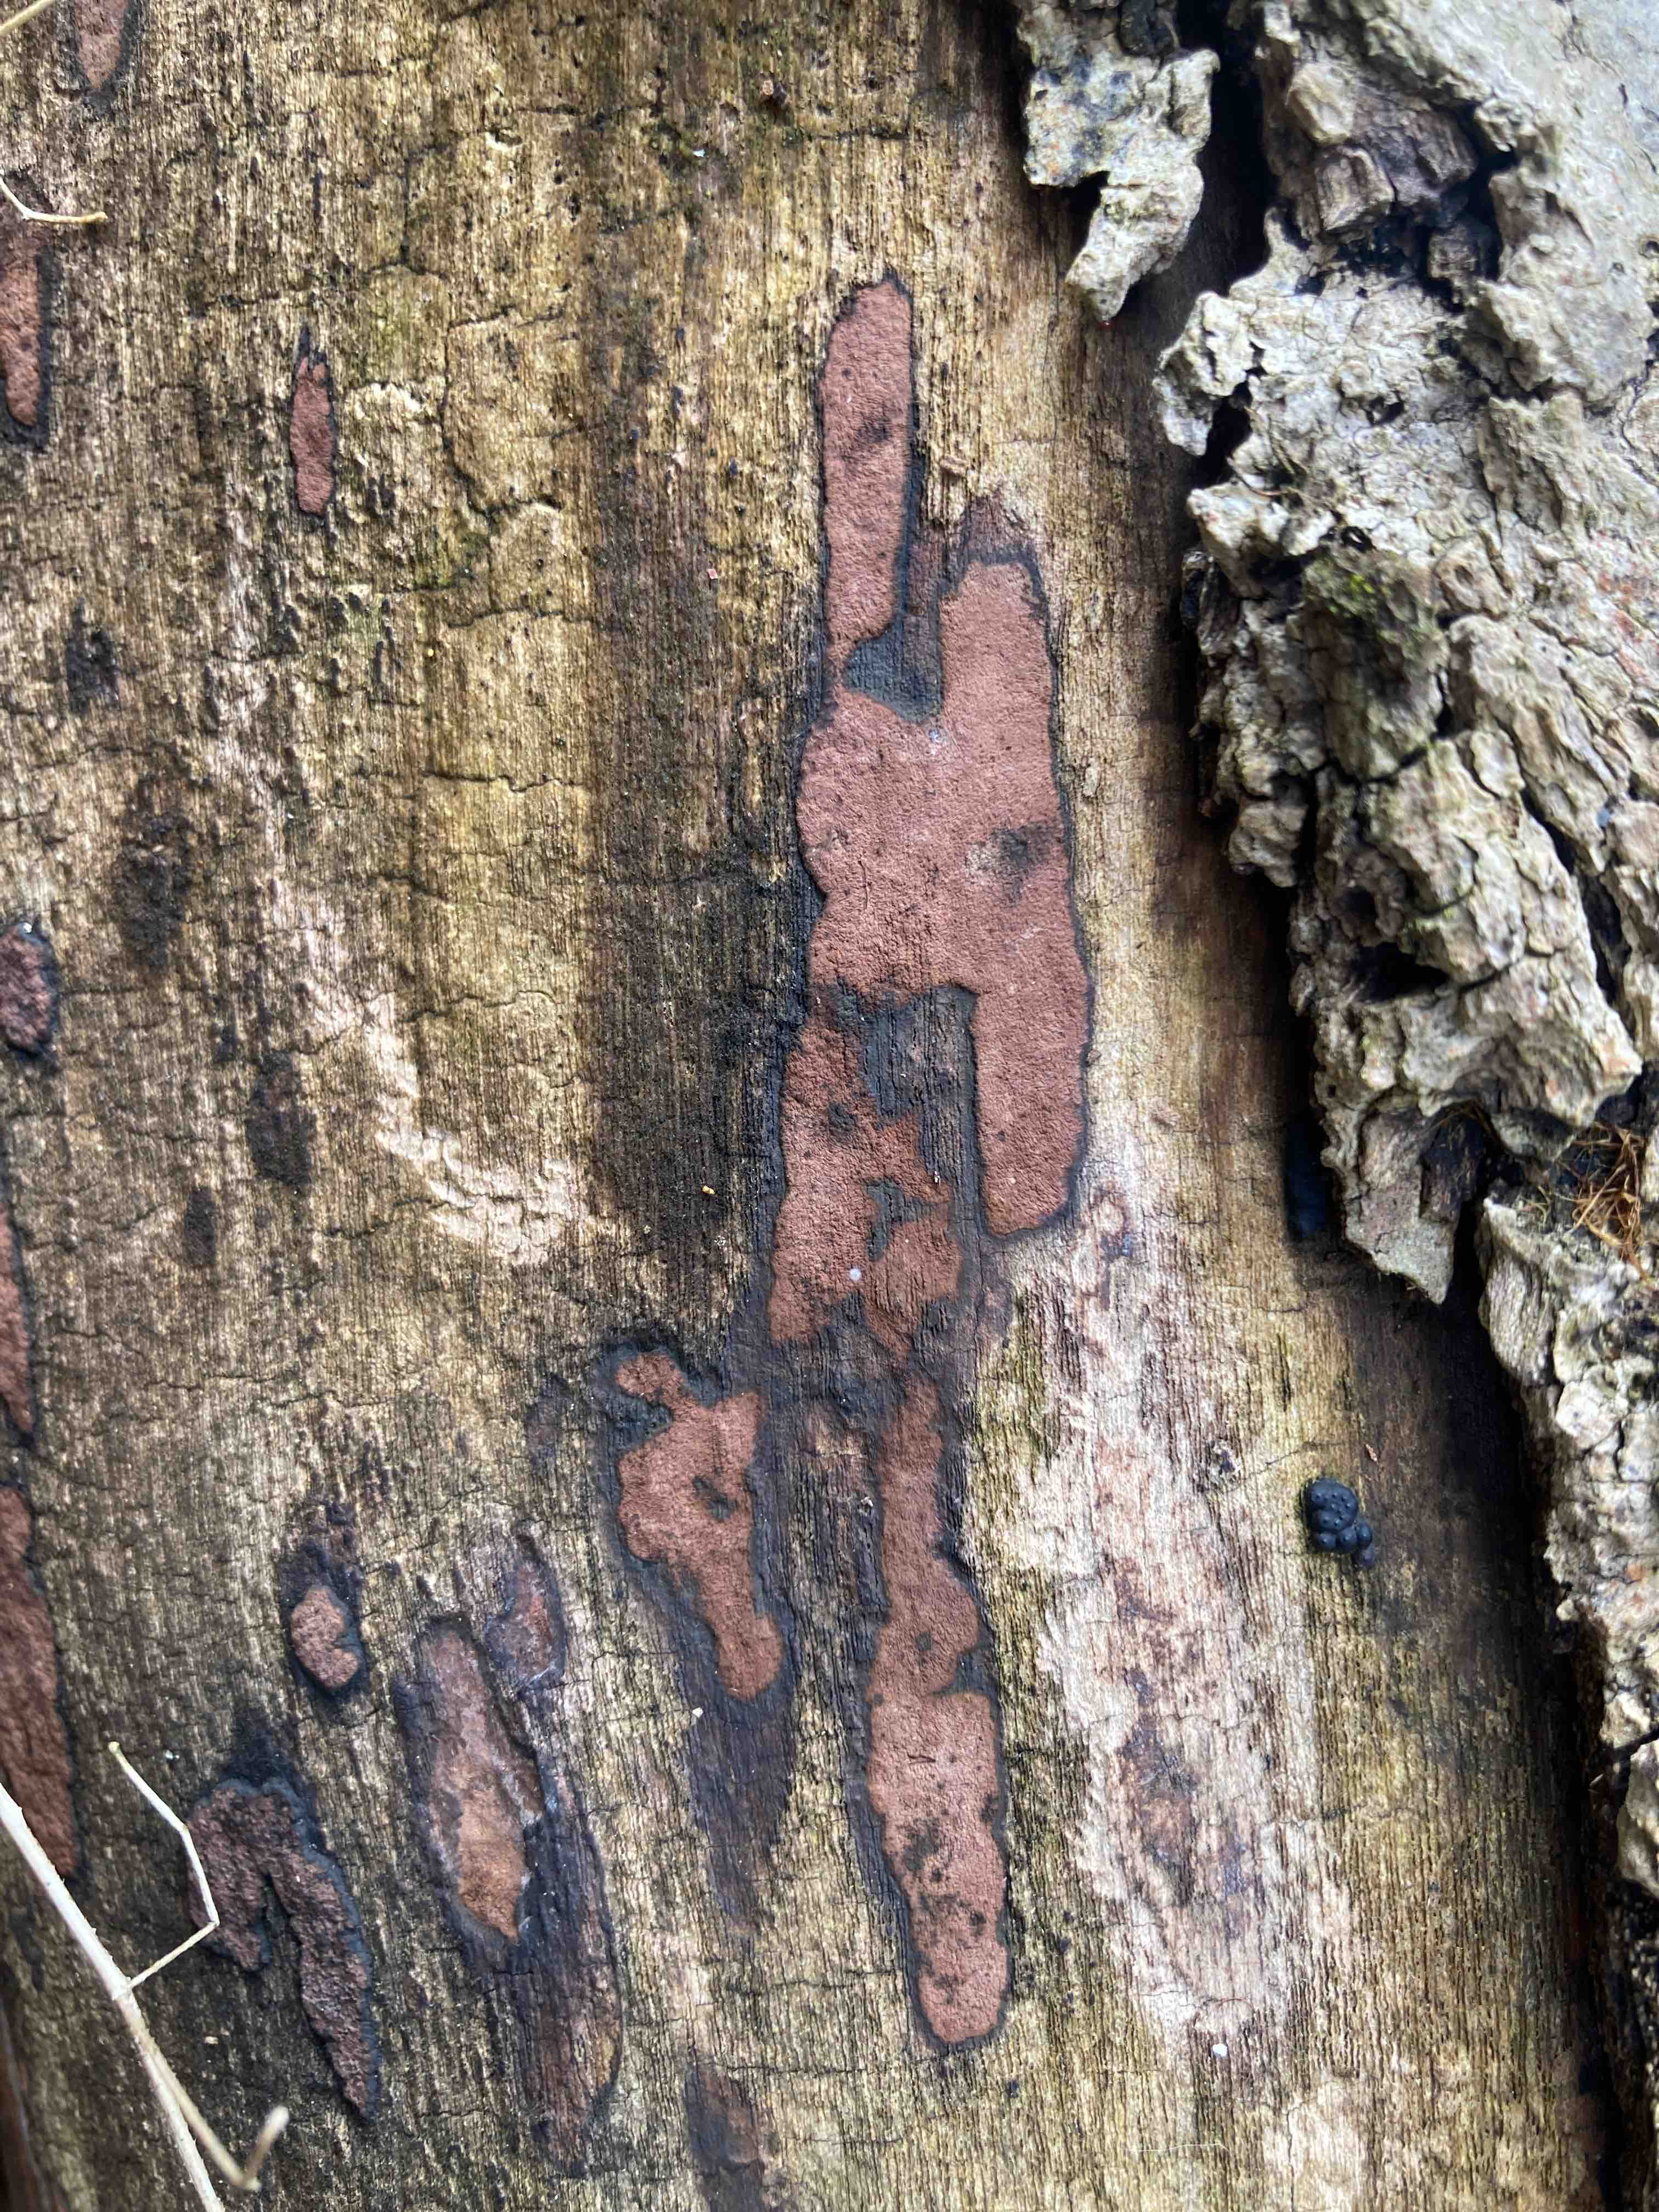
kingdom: Fungi
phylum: Ascomycota
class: Sordariomycetes
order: Xylariales
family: Hypoxylaceae
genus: Hypoxylon
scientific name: Hypoxylon petriniae
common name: nedsænket kulbær
